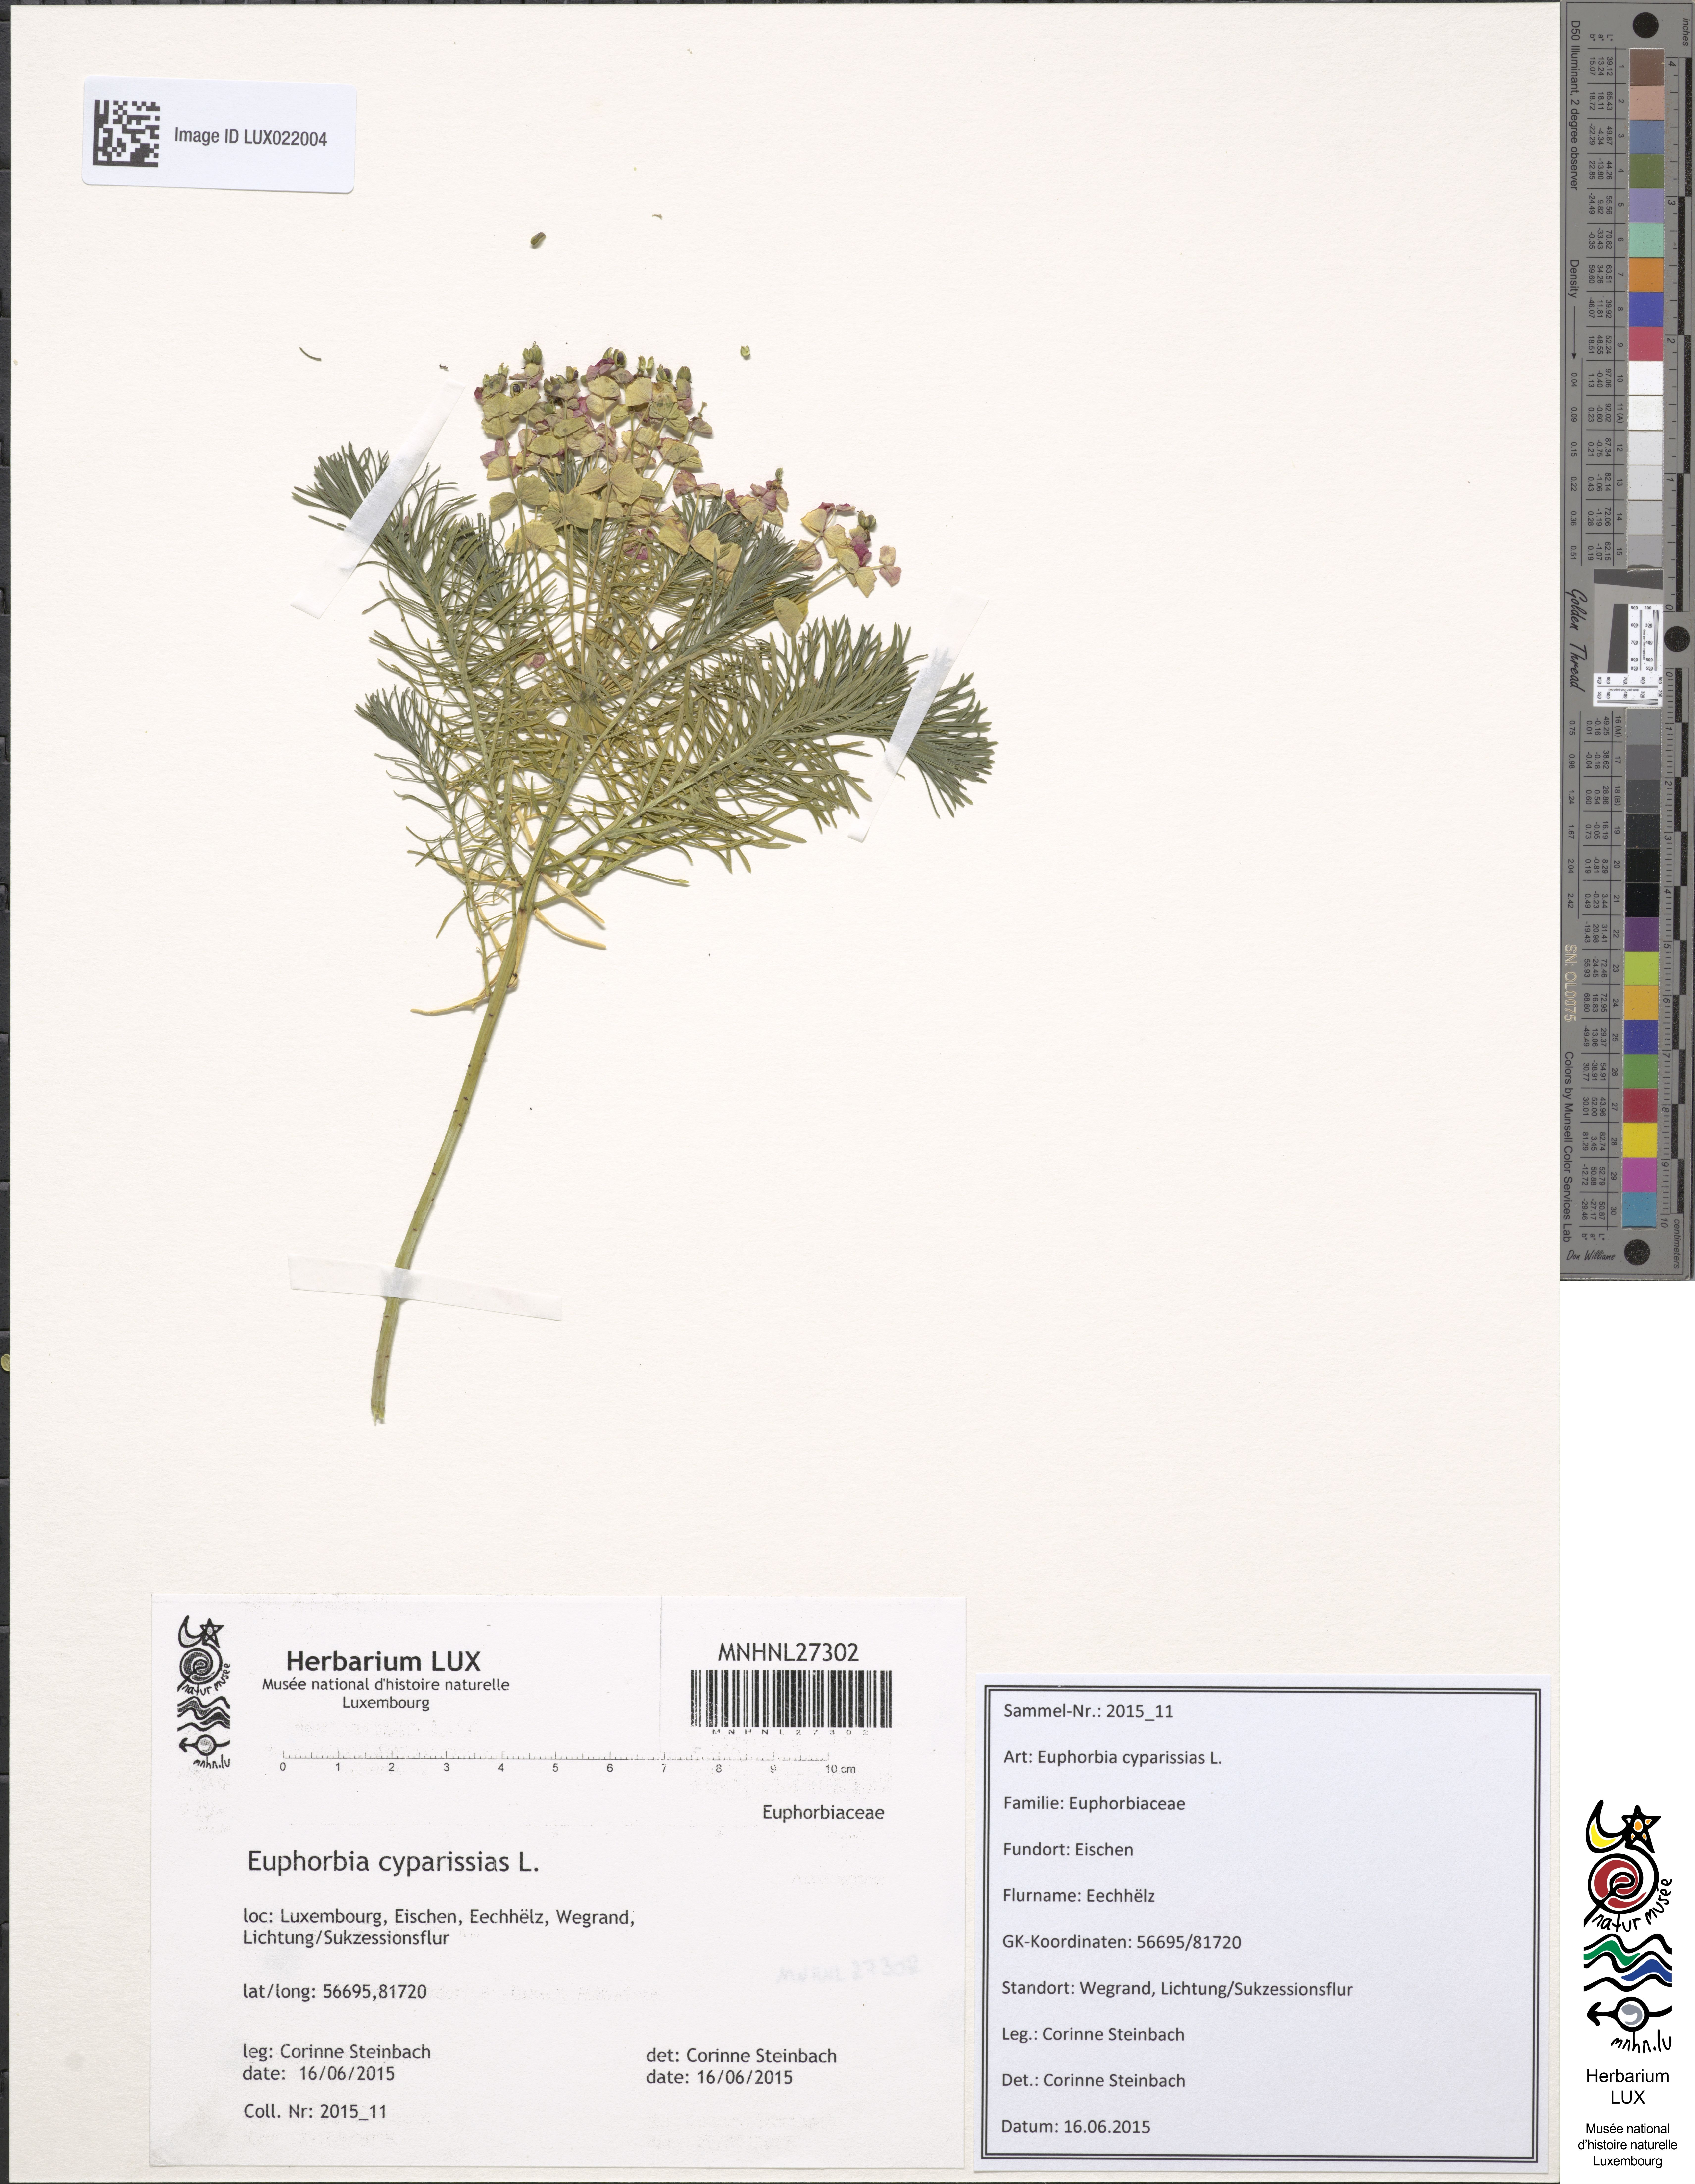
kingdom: Plantae
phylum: Tracheophyta
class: Magnoliopsida
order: Malpighiales
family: Euphorbiaceae
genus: Euphorbia
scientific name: Euphorbia cyparissias
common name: Cypress spurge
